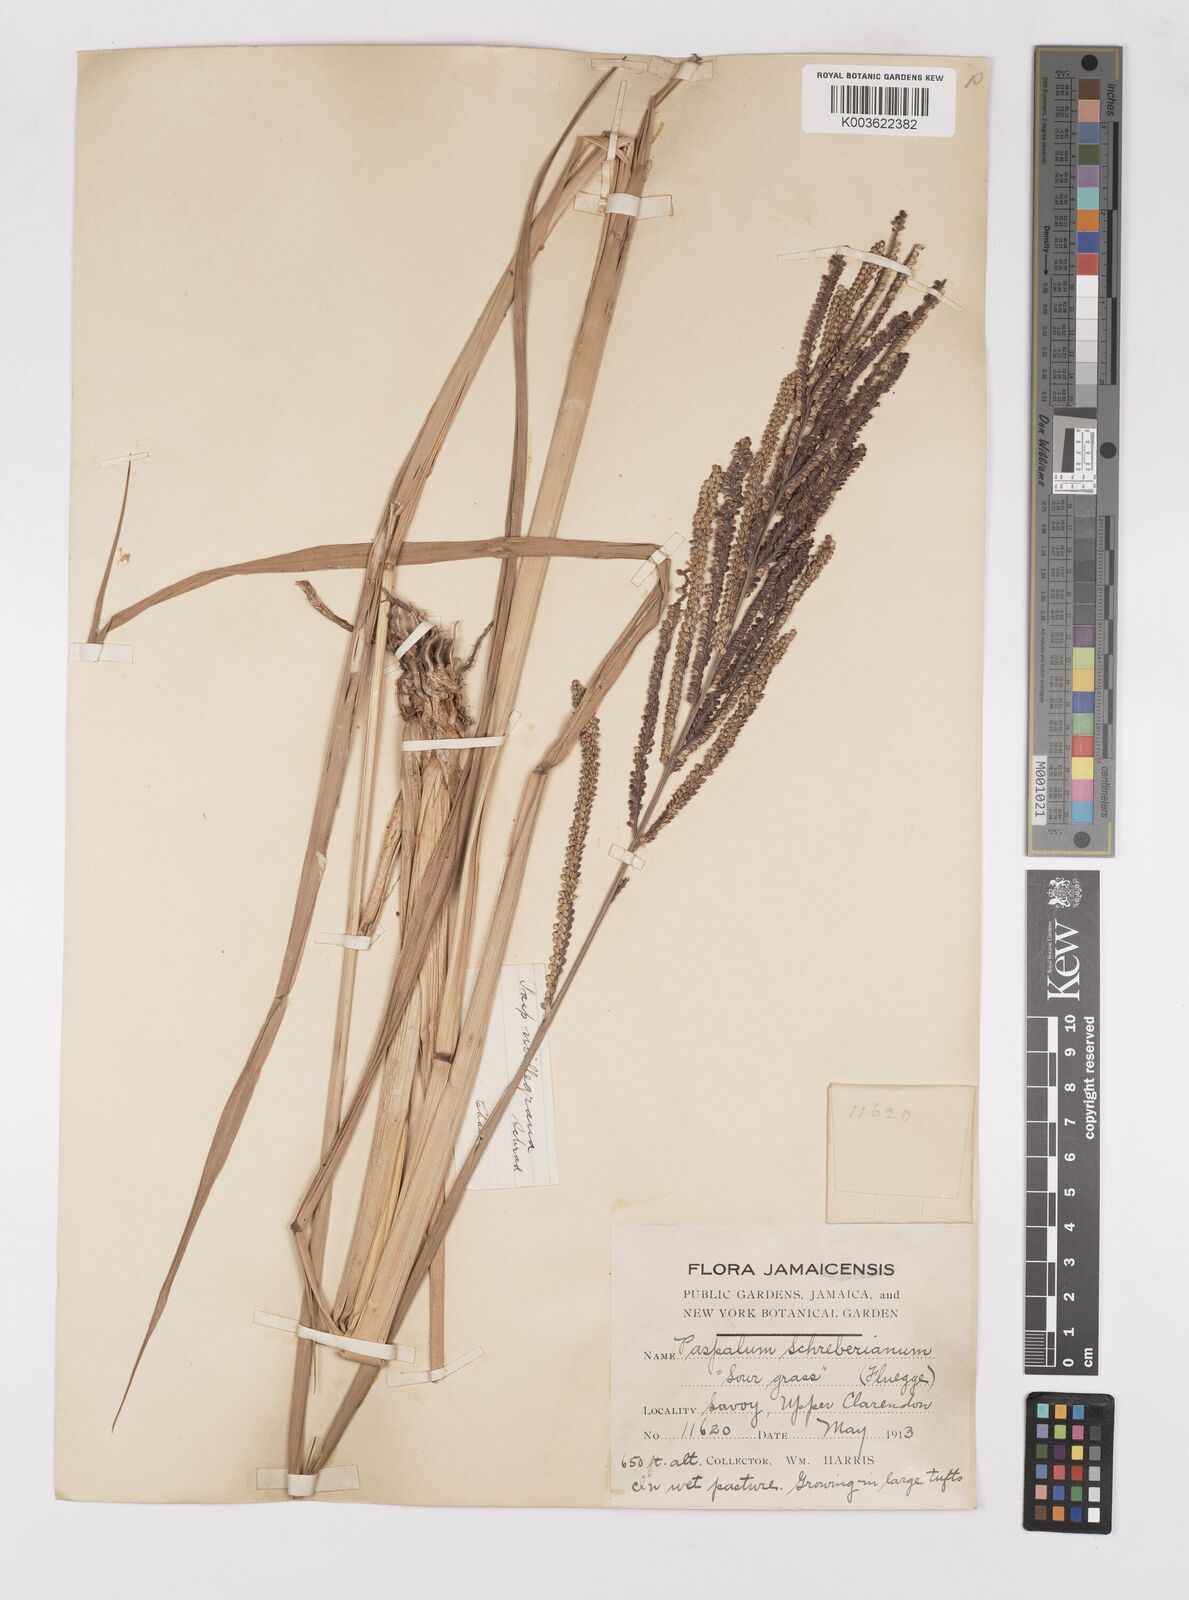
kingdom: Plantae
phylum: Tracheophyta
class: Liliopsida
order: Poales
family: Poaceae
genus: Paspalum
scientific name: Paspalum millegranum
